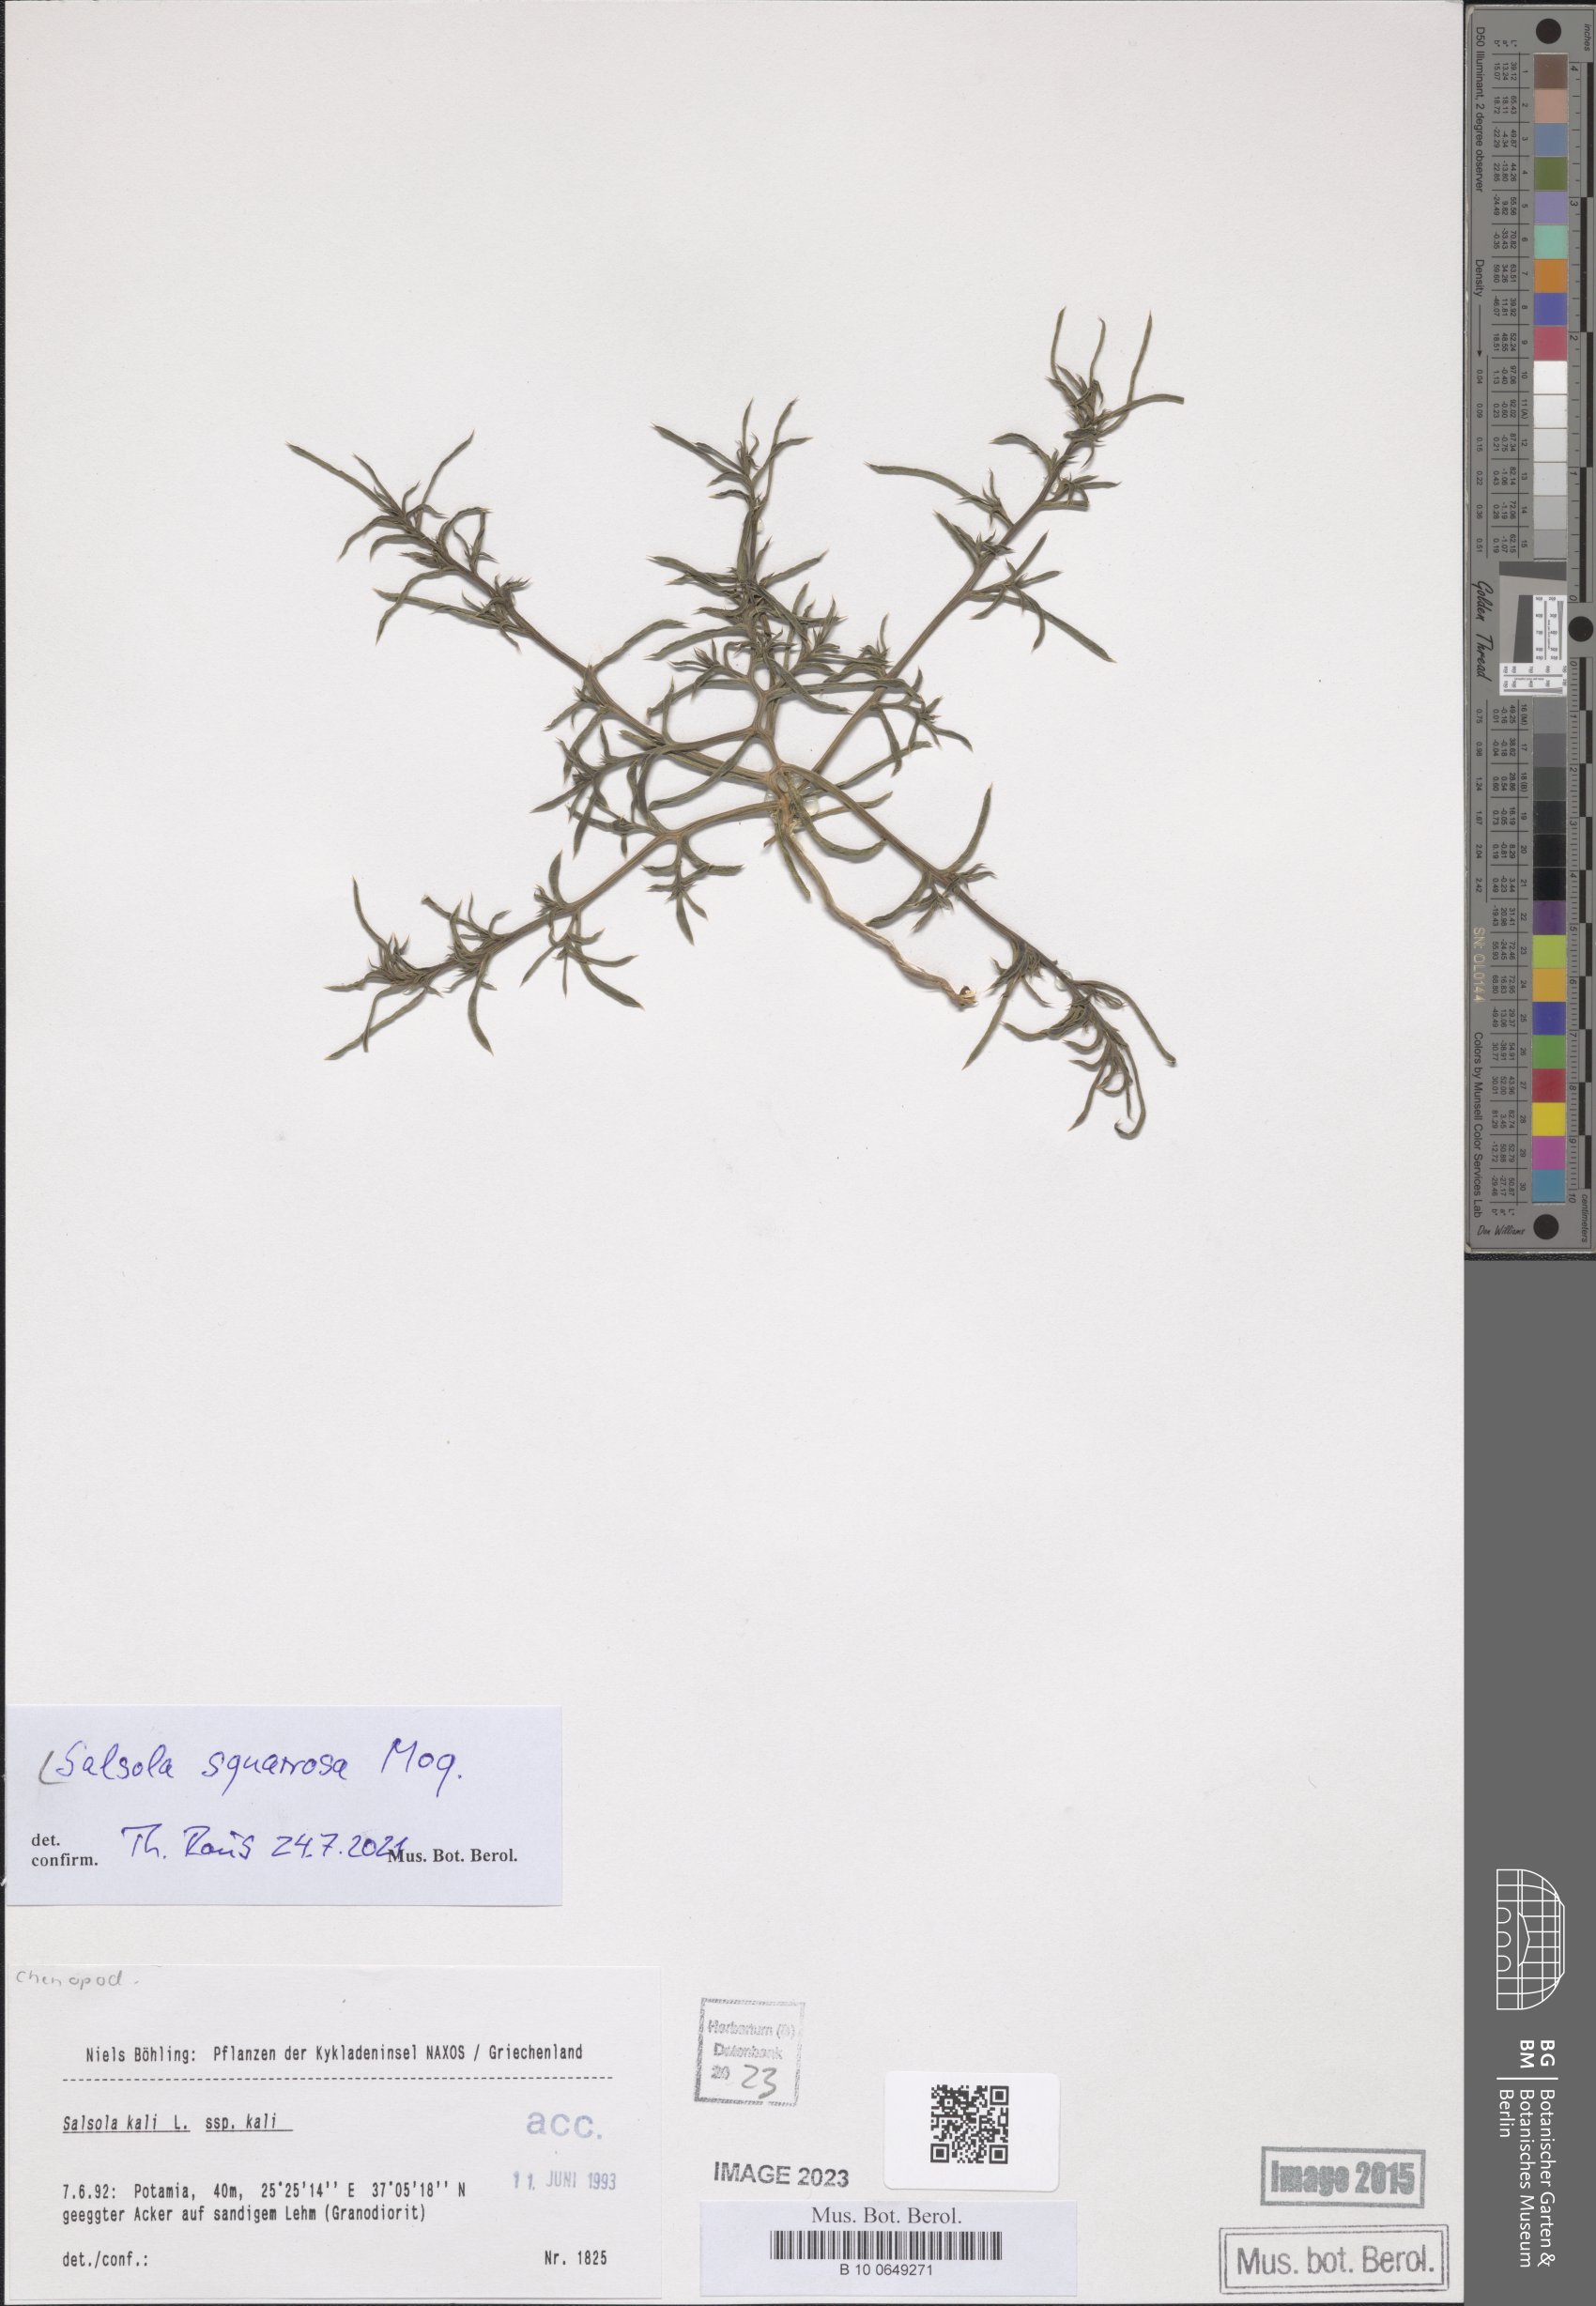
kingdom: Plantae
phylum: Tracheophyta
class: Magnoliopsida
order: Caryophyllales
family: Amaranthaceae
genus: Salsola
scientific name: Salsola squarrosa
